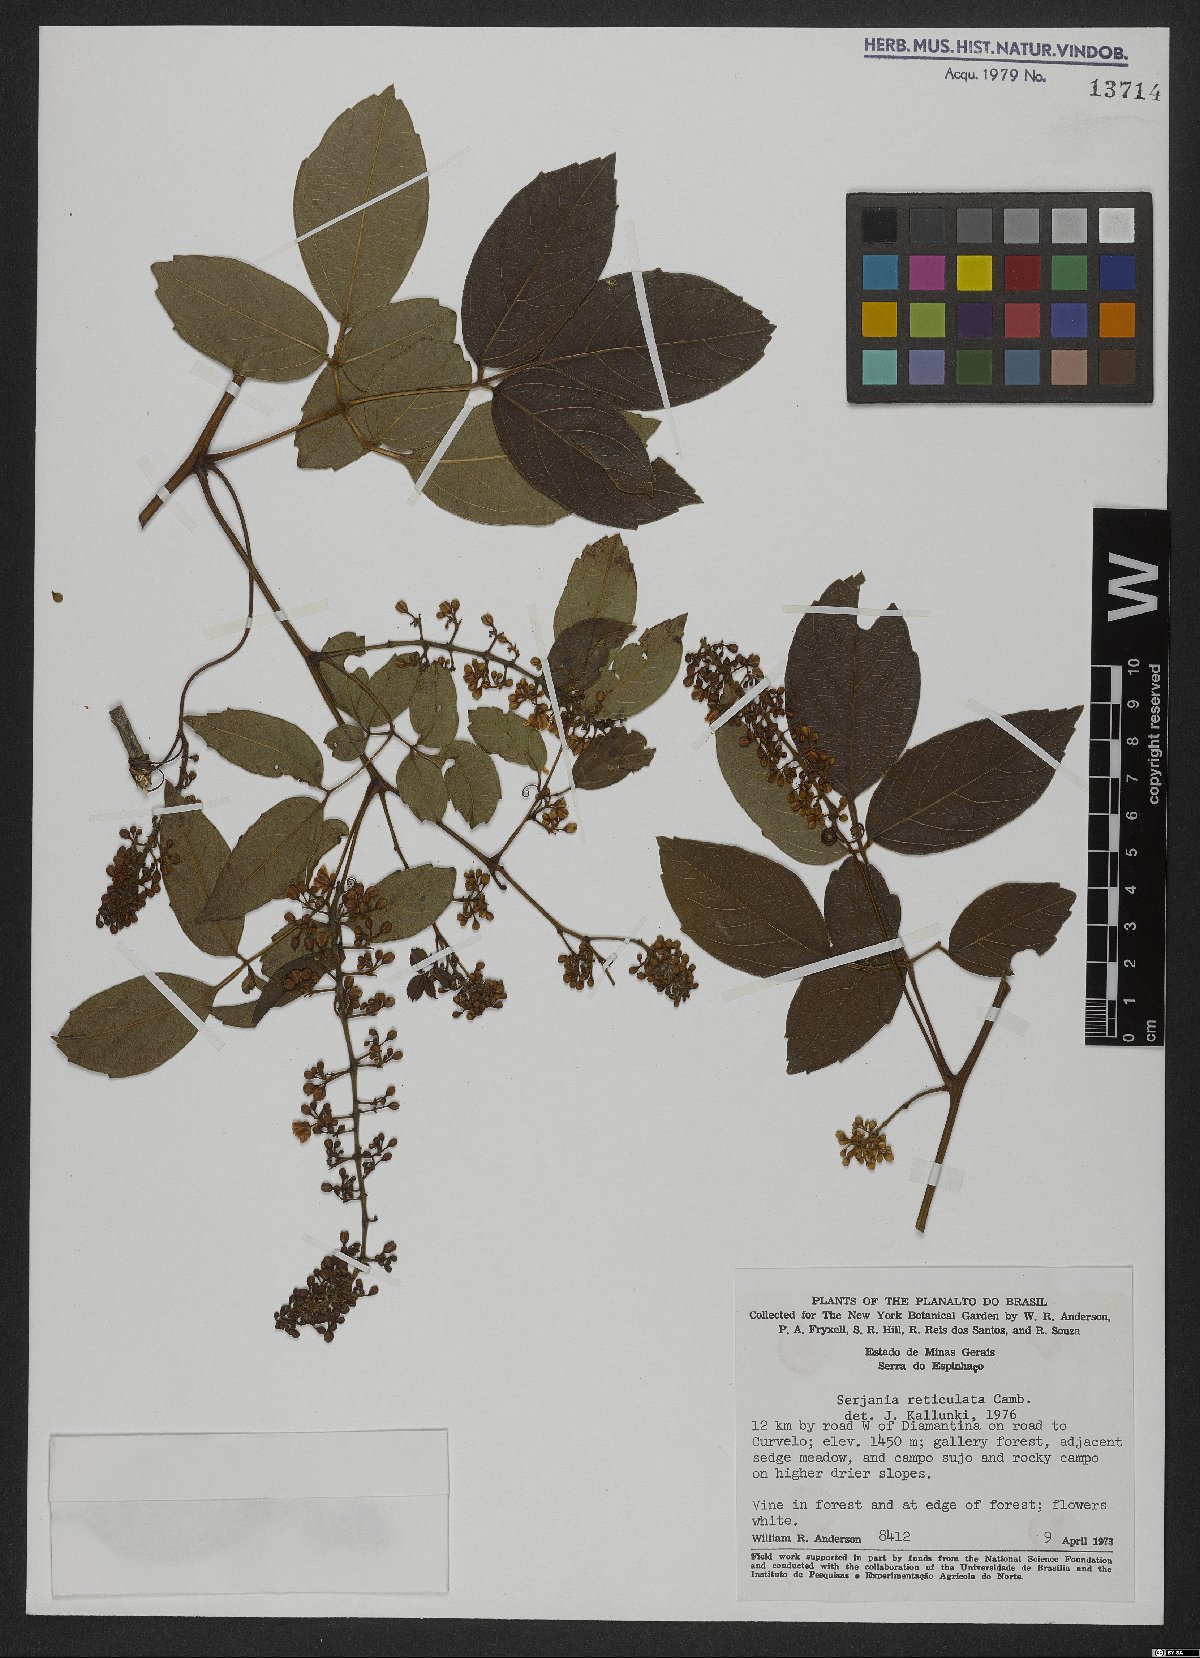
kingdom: Plantae
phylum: Tracheophyta
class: Magnoliopsida
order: Sapindales
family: Sapindaceae
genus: Serjania
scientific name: Serjania reticulata
